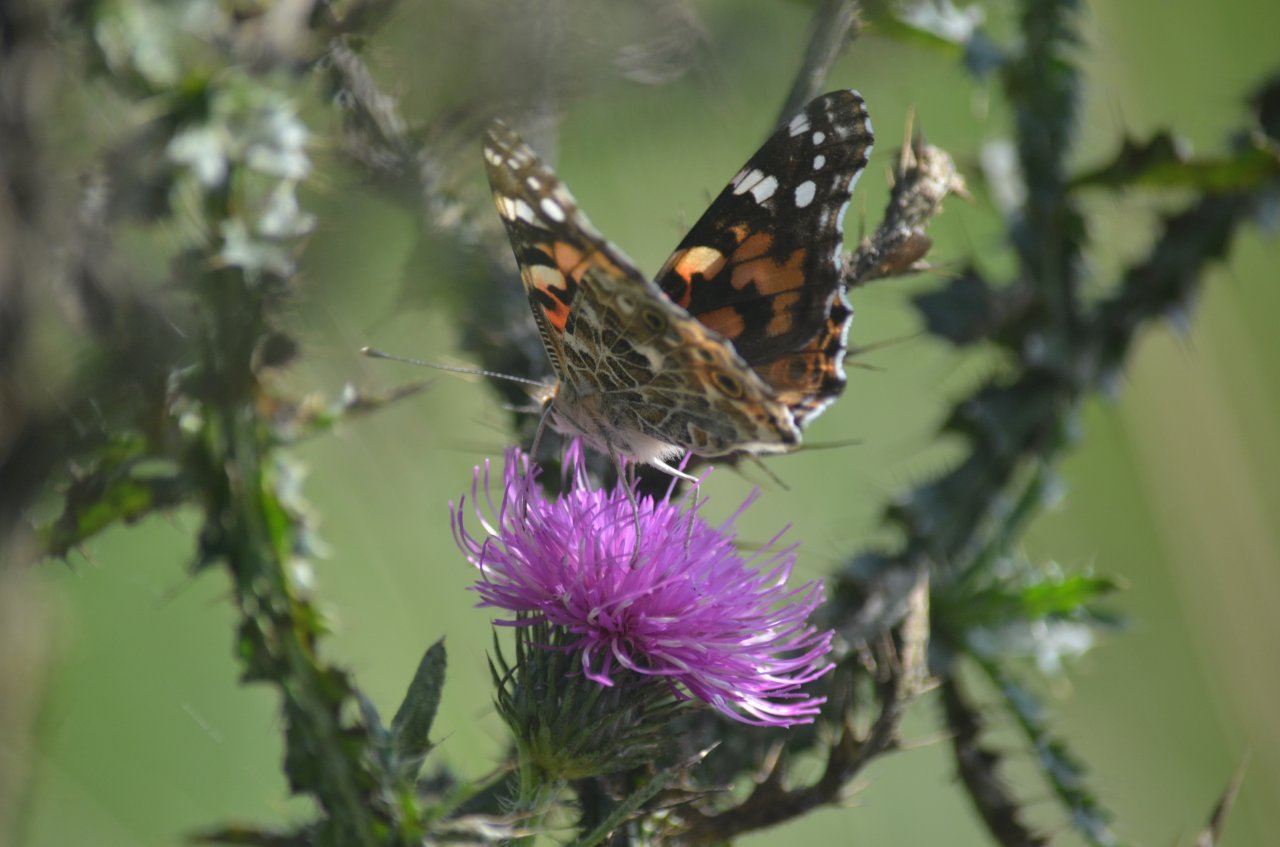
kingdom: Animalia
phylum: Arthropoda
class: Insecta
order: Lepidoptera
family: Nymphalidae
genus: Vanessa
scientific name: Vanessa cardui
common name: Painted Lady
